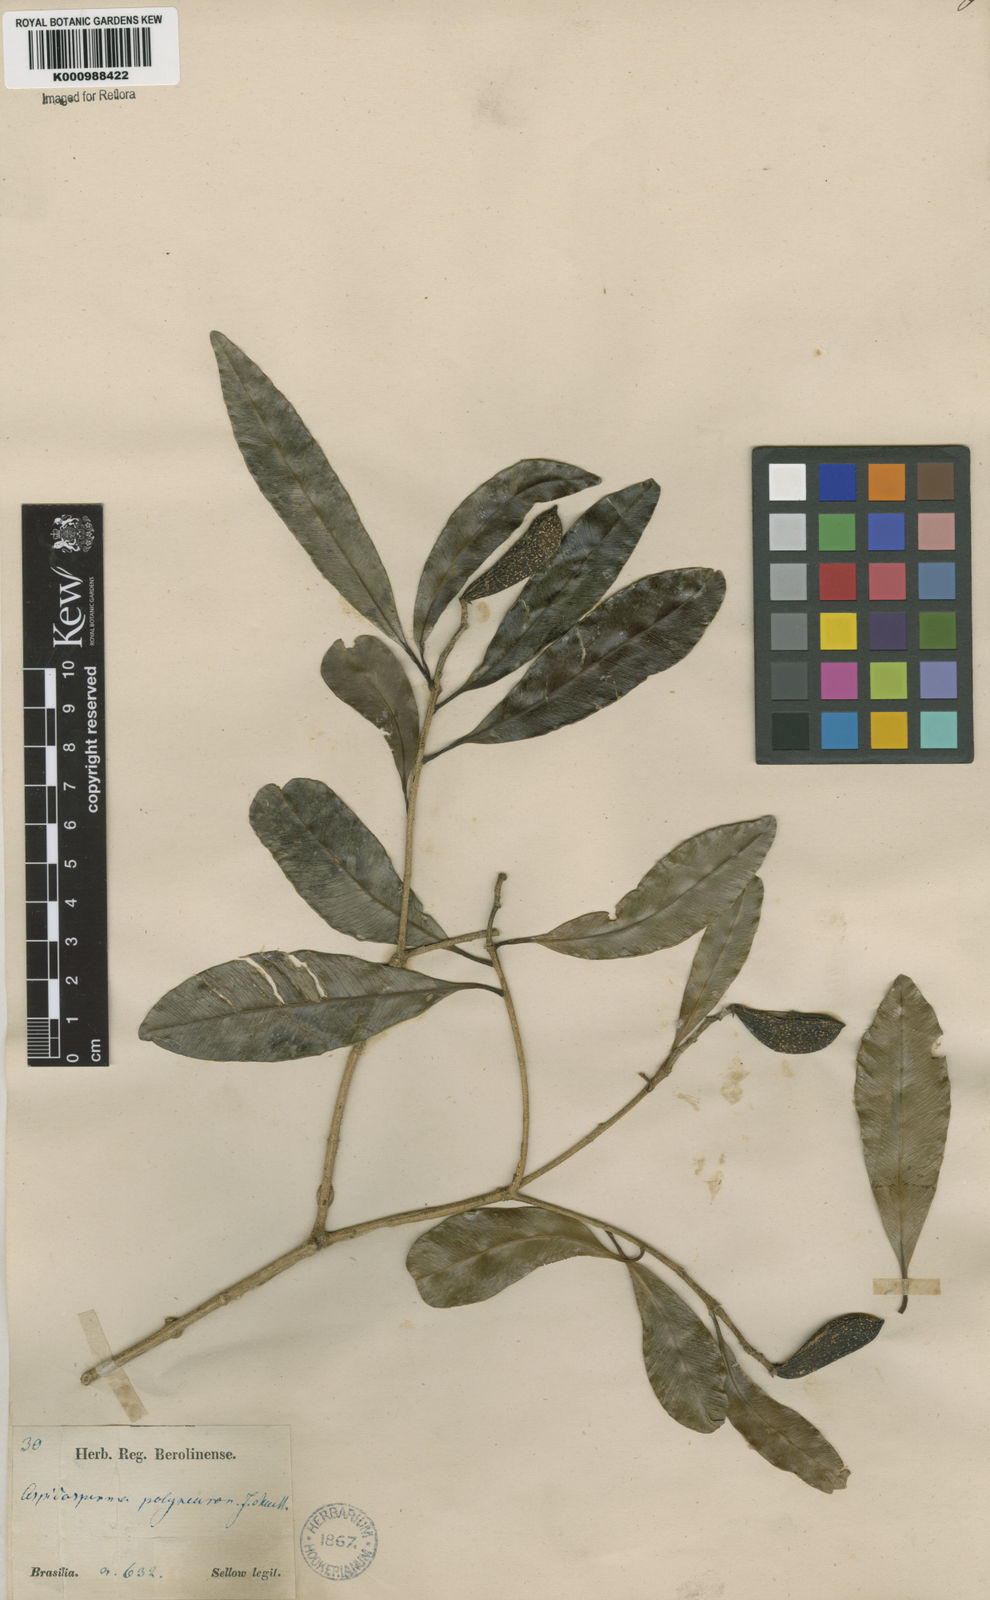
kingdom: Plantae
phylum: Tracheophyta
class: Magnoliopsida
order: Gentianales
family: Apocynaceae
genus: Aspidosperma
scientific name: Aspidosperma
